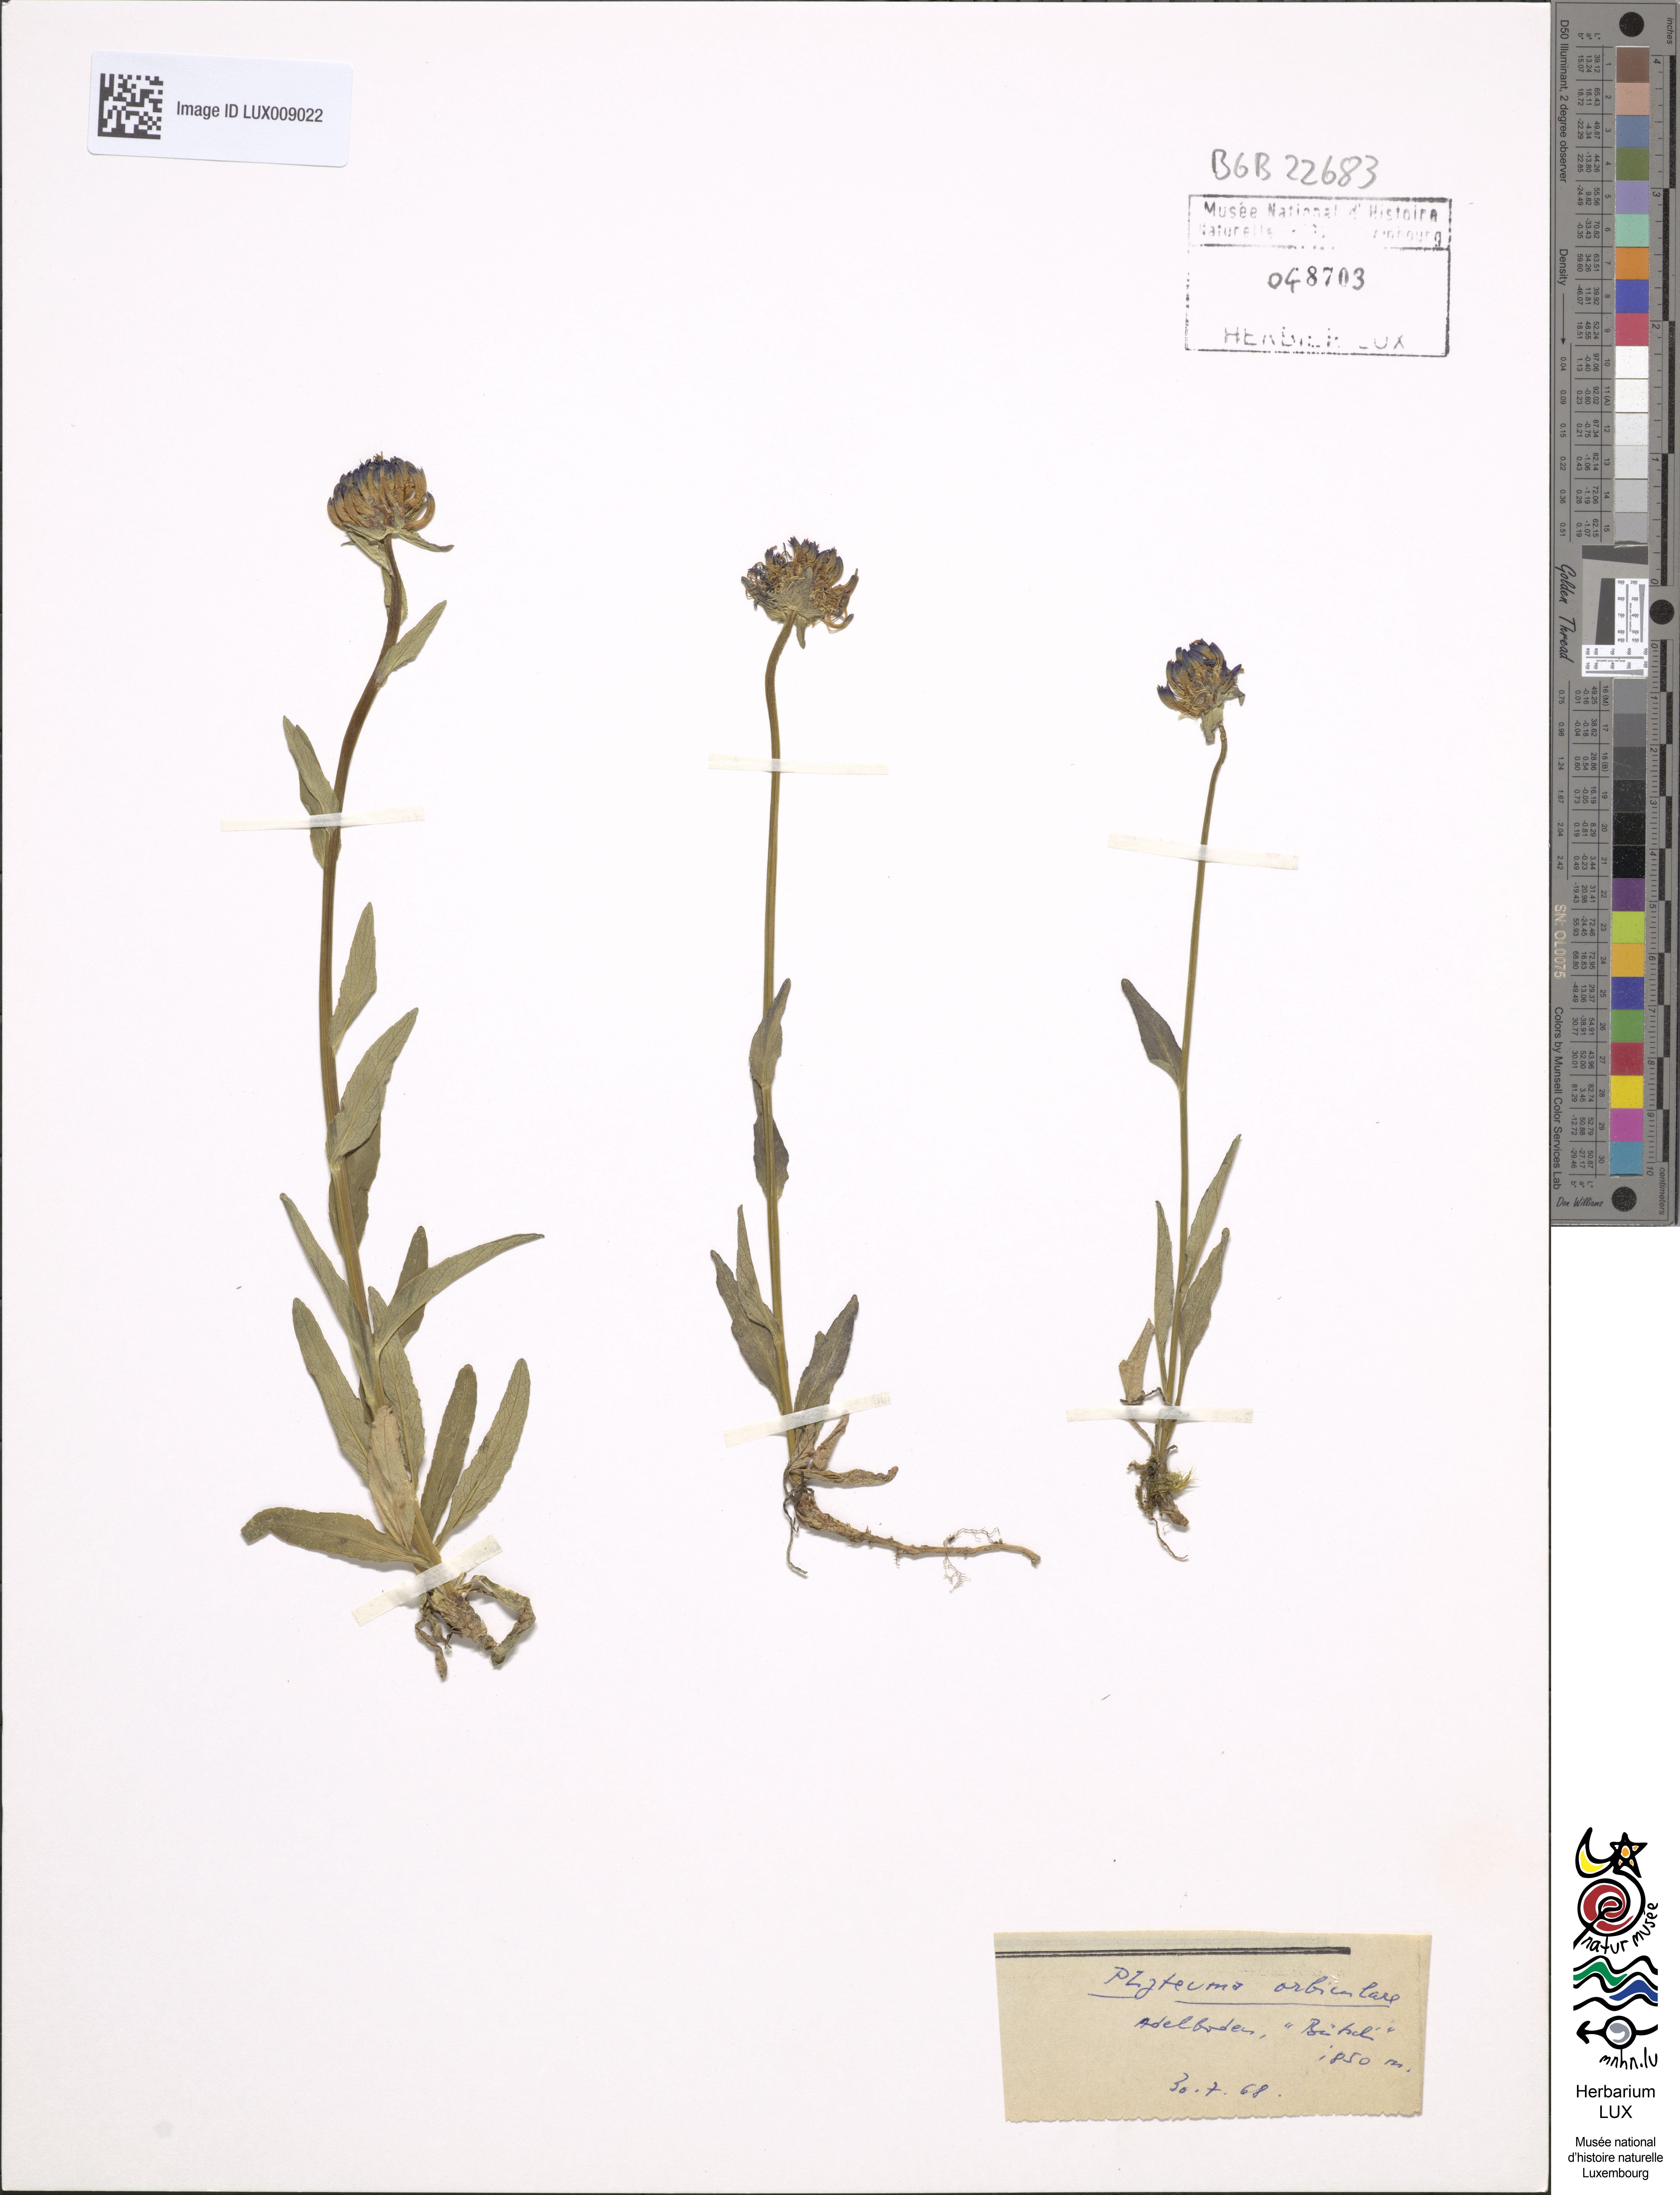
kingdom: Plantae
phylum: Tracheophyta
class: Magnoliopsida
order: Asterales
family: Campanulaceae
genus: Phyteuma
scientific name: Phyteuma orbiculare
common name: Round-headed rampion
